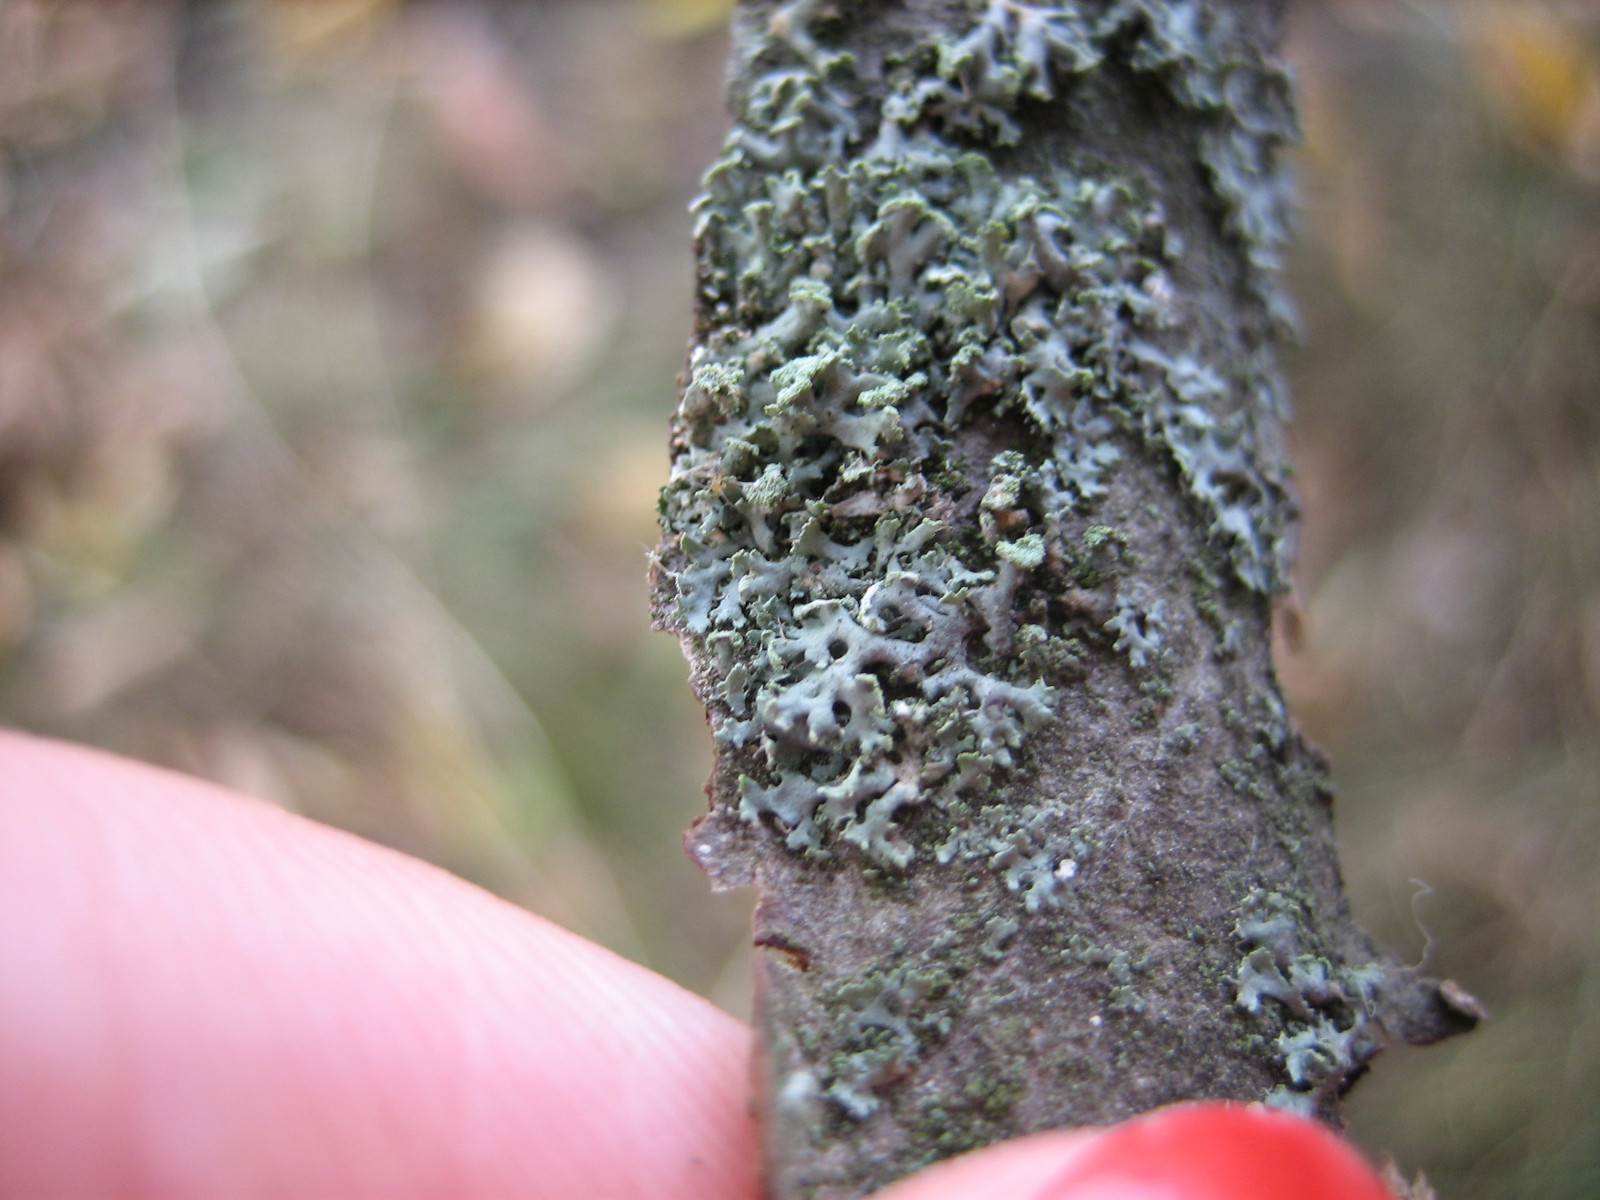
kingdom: Fungi
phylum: Ascomycota
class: Lecanoromycetes
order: Caliciales
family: Physciaceae
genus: Physcia
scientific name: Physcia tenella
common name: spæd rosetlav
